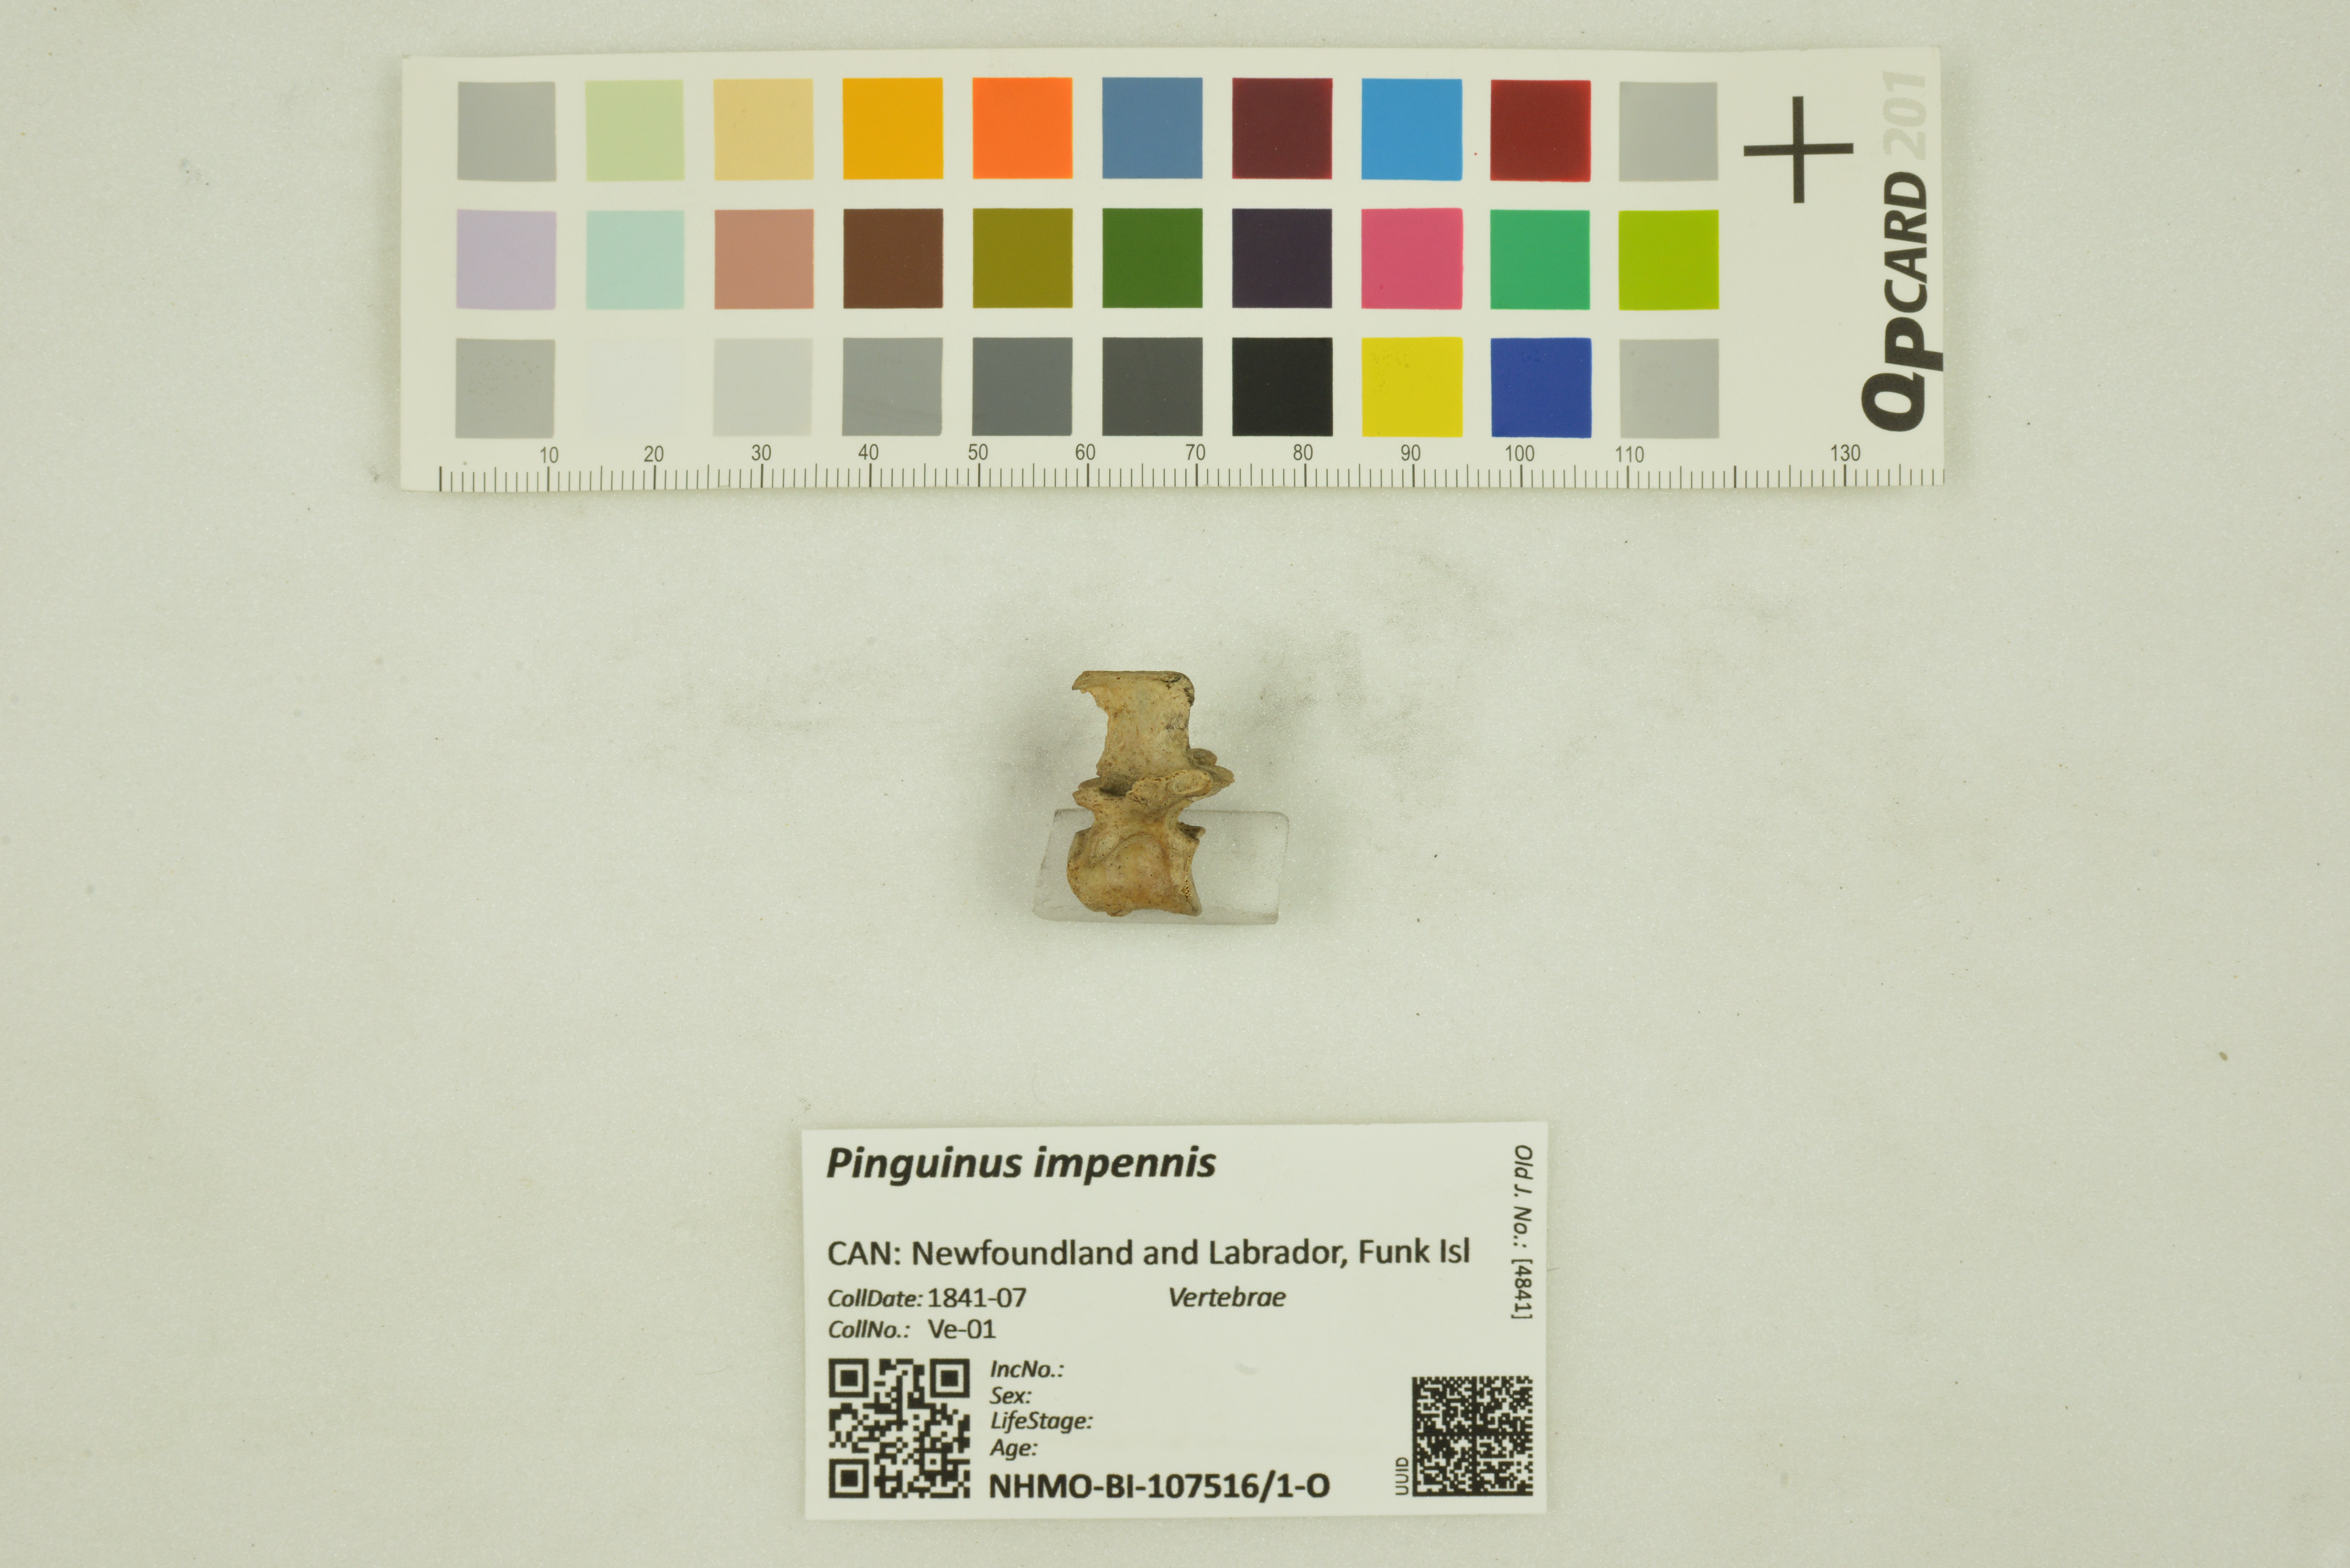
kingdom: Animalia
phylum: Chordata
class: Aves
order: Charadriiformes
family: Alcidae
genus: Pinguinus
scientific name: Pinguinus impennis
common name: Great auk
